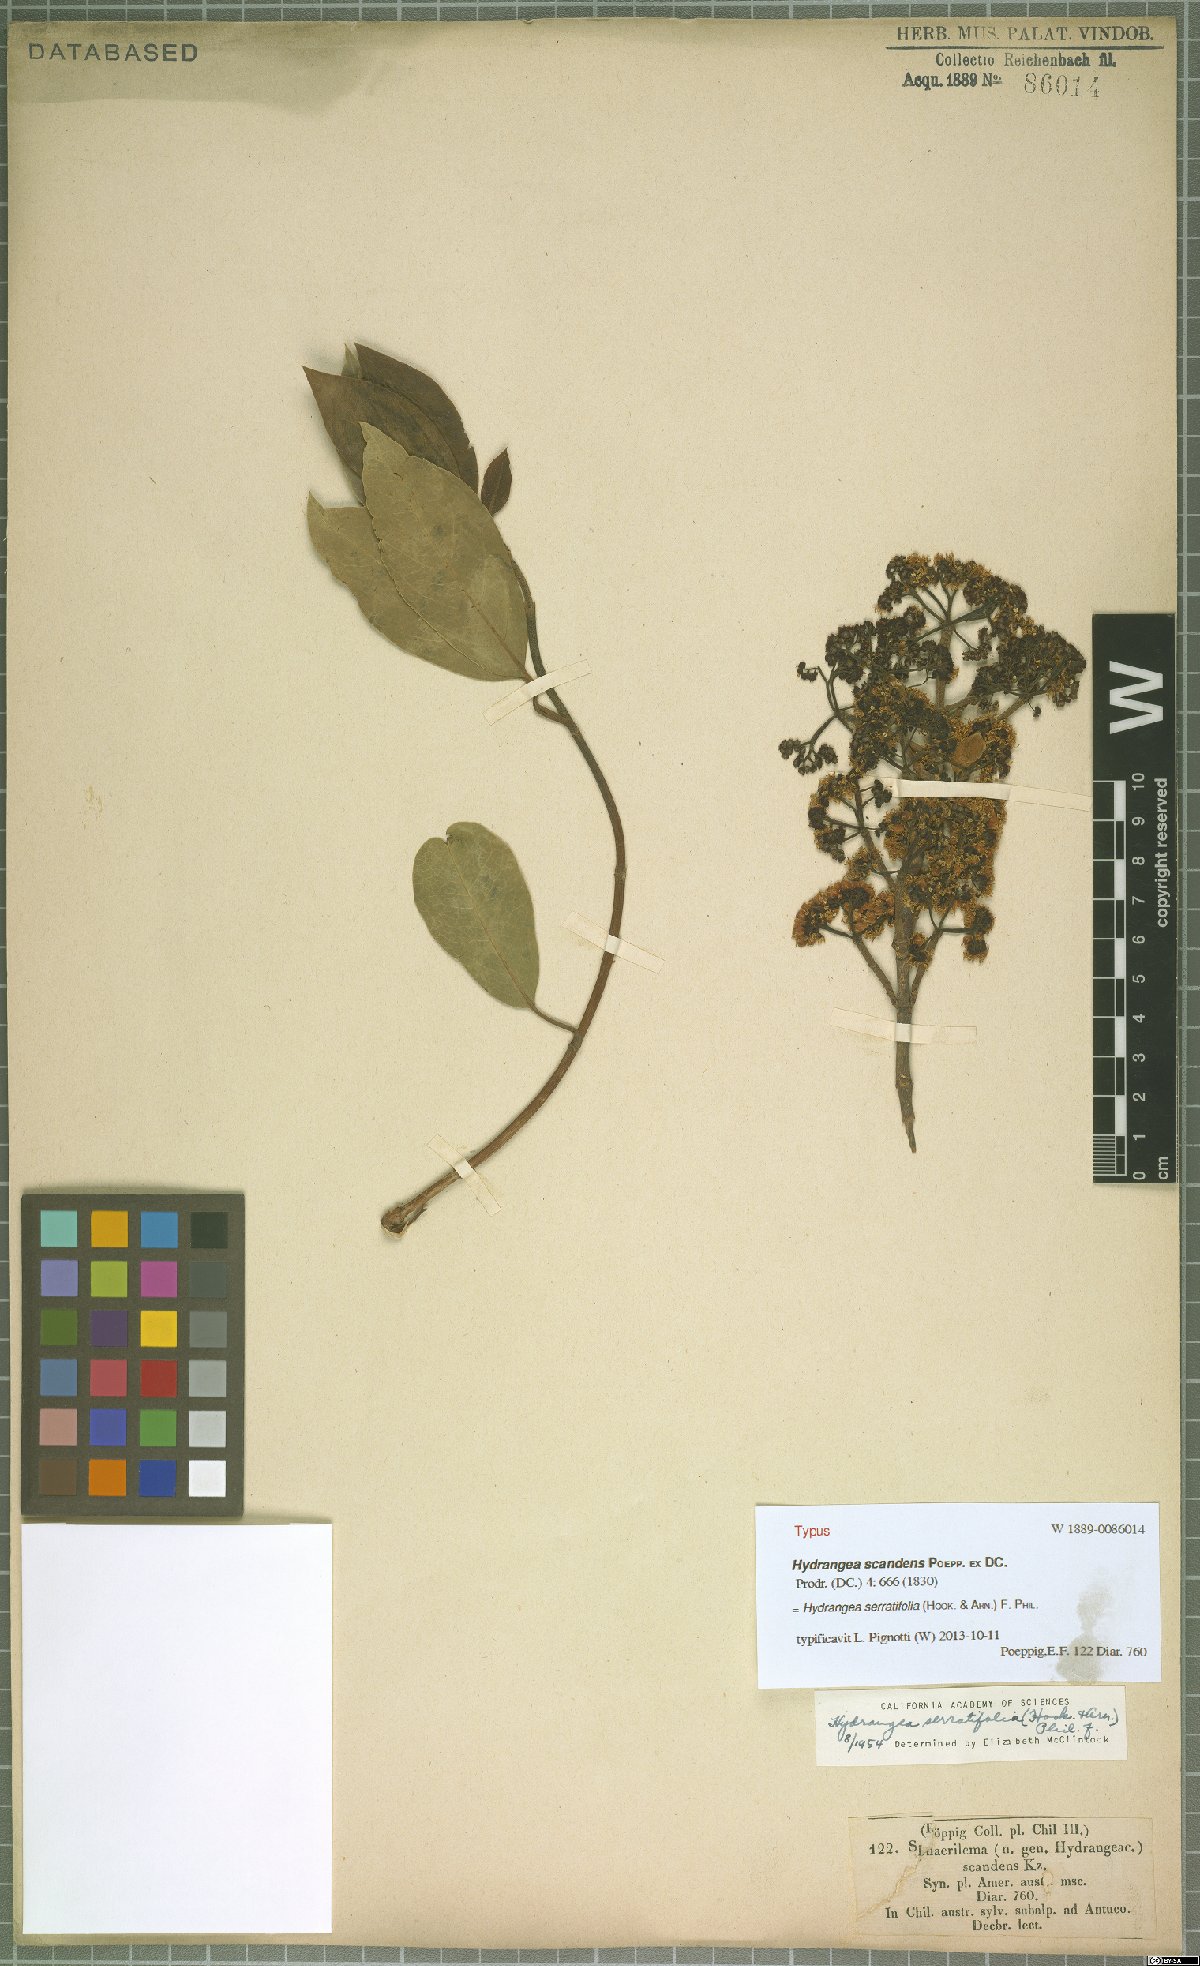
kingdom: Plantae
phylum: Tracheophyta
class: Magnoliopsida
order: Cornales
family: Hydrangeaceae
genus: Hydrangea
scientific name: Hydrangea serratifolia
